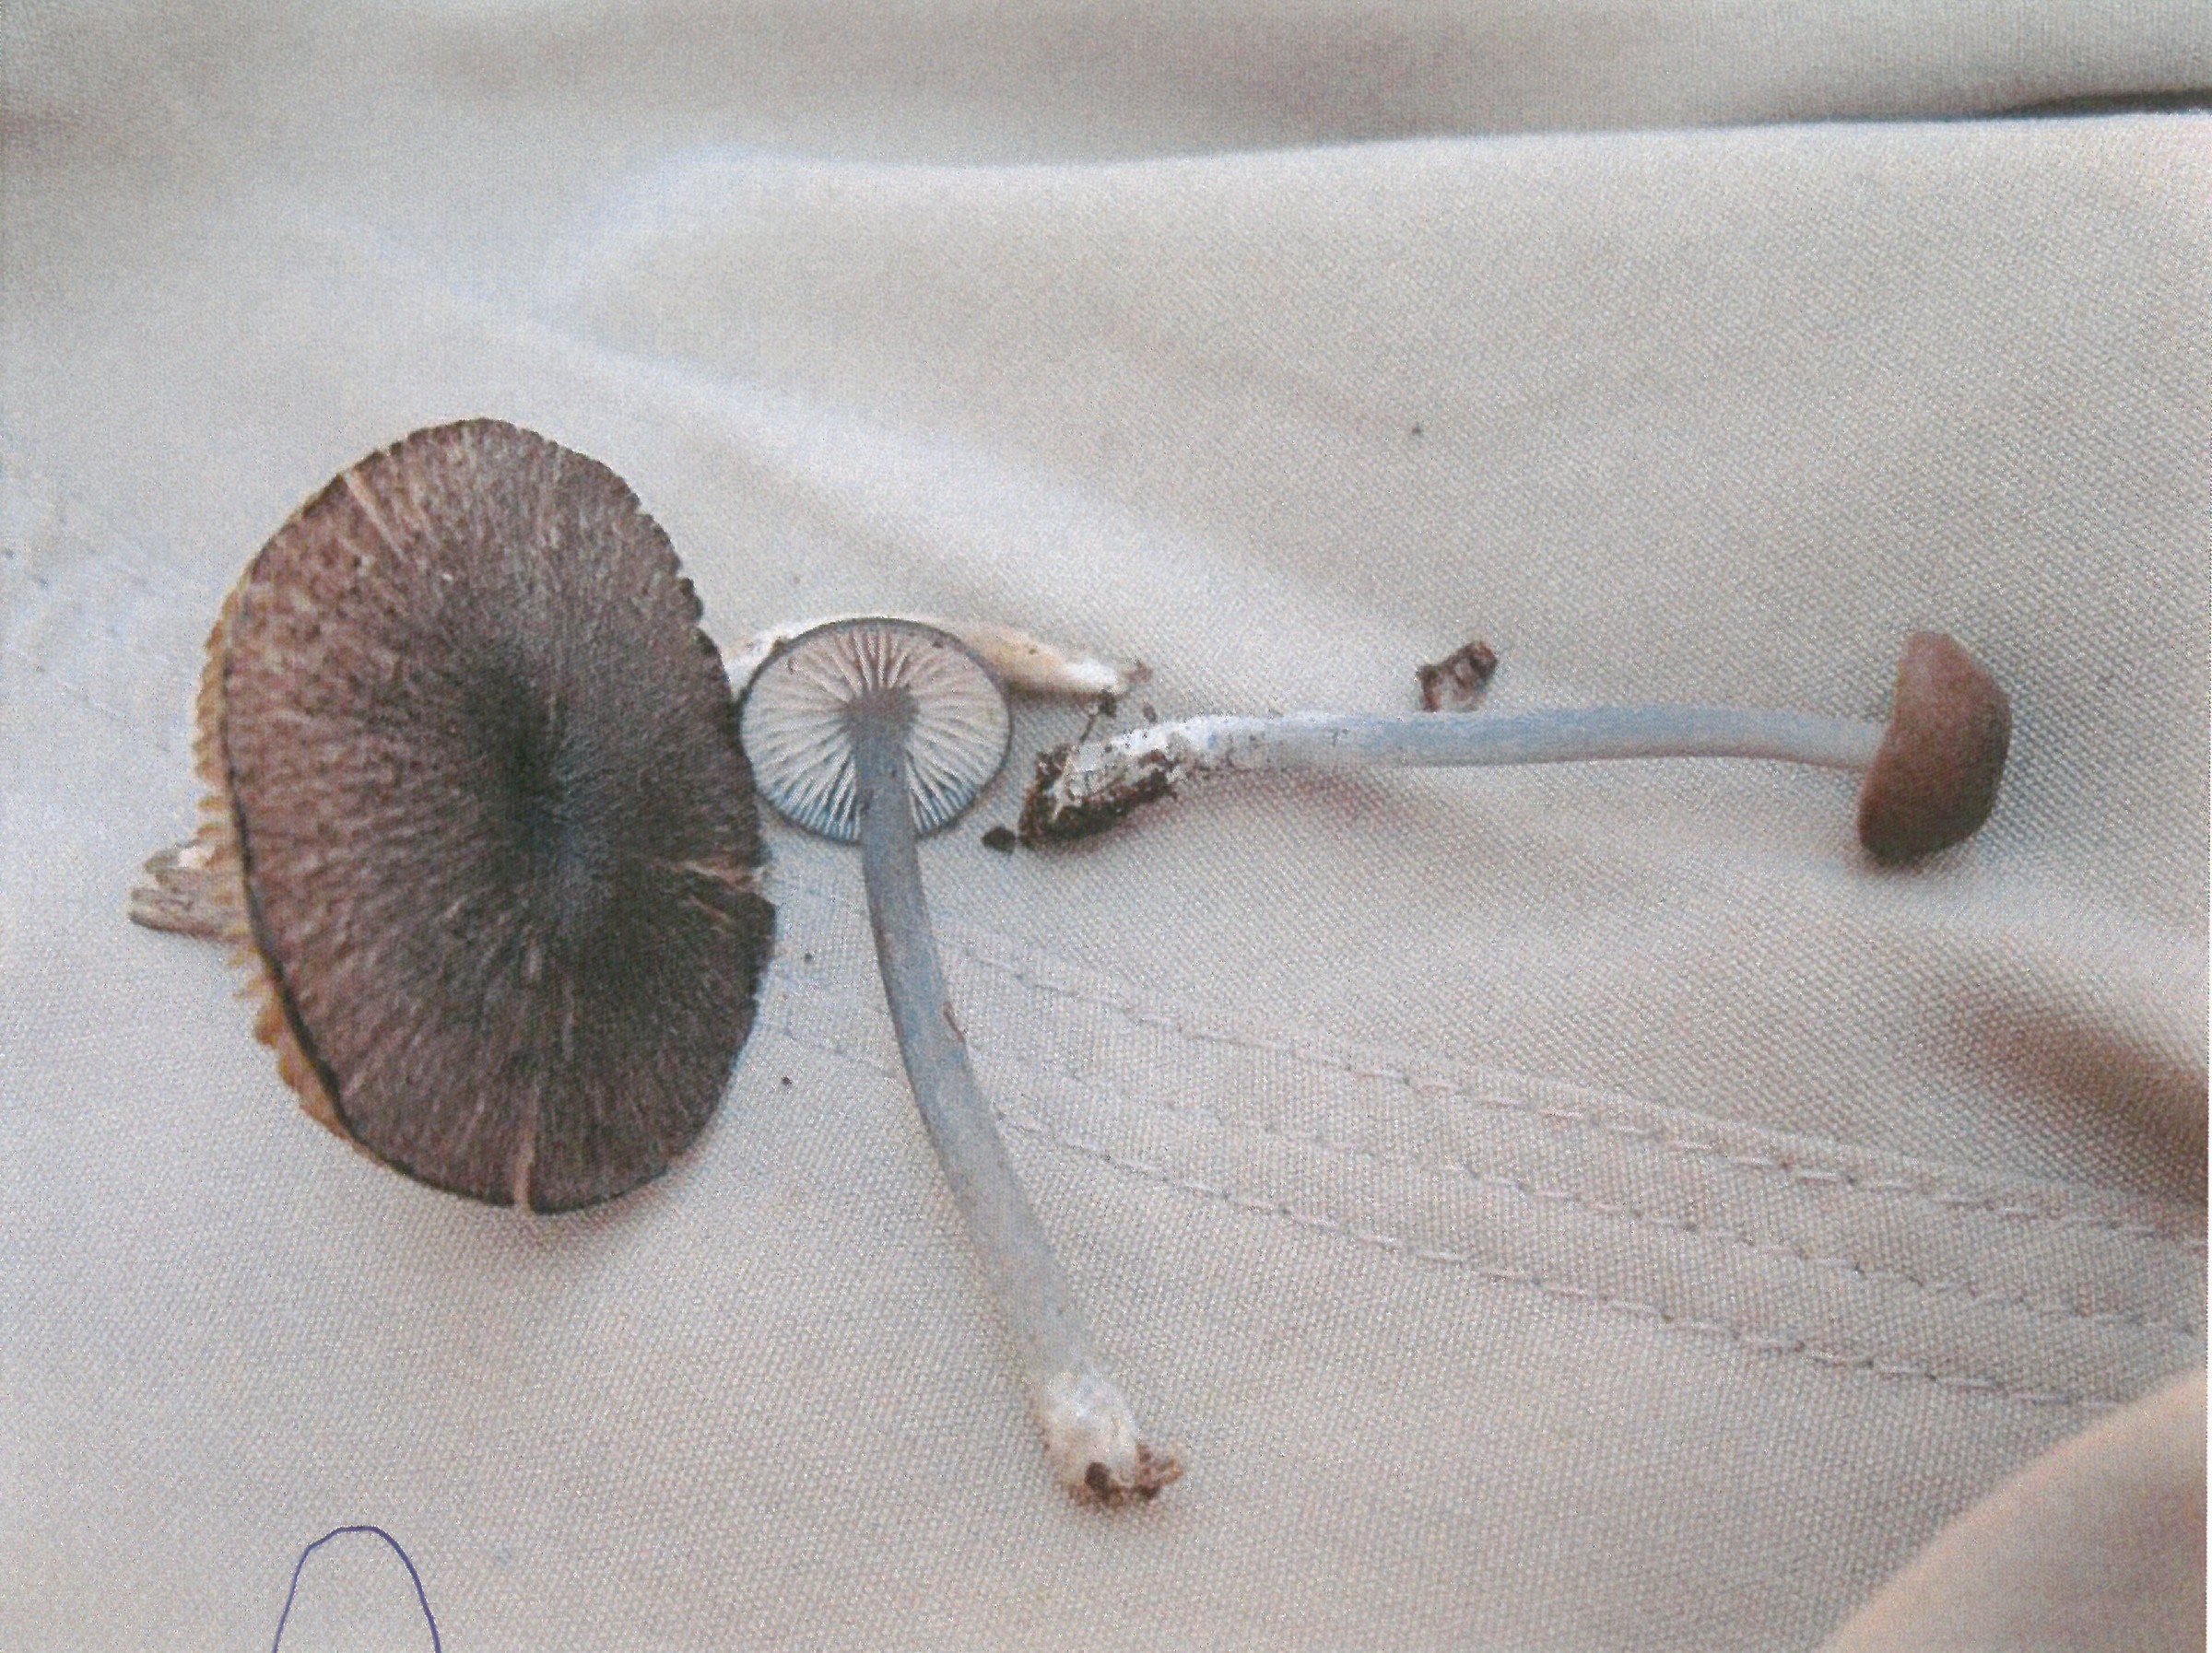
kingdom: Fungi
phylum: Basidiomycota
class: Agaricomycetes
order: Agaricales
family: Entolomataceae
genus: Entoloma
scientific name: Entoloma violaceoserrulatum
